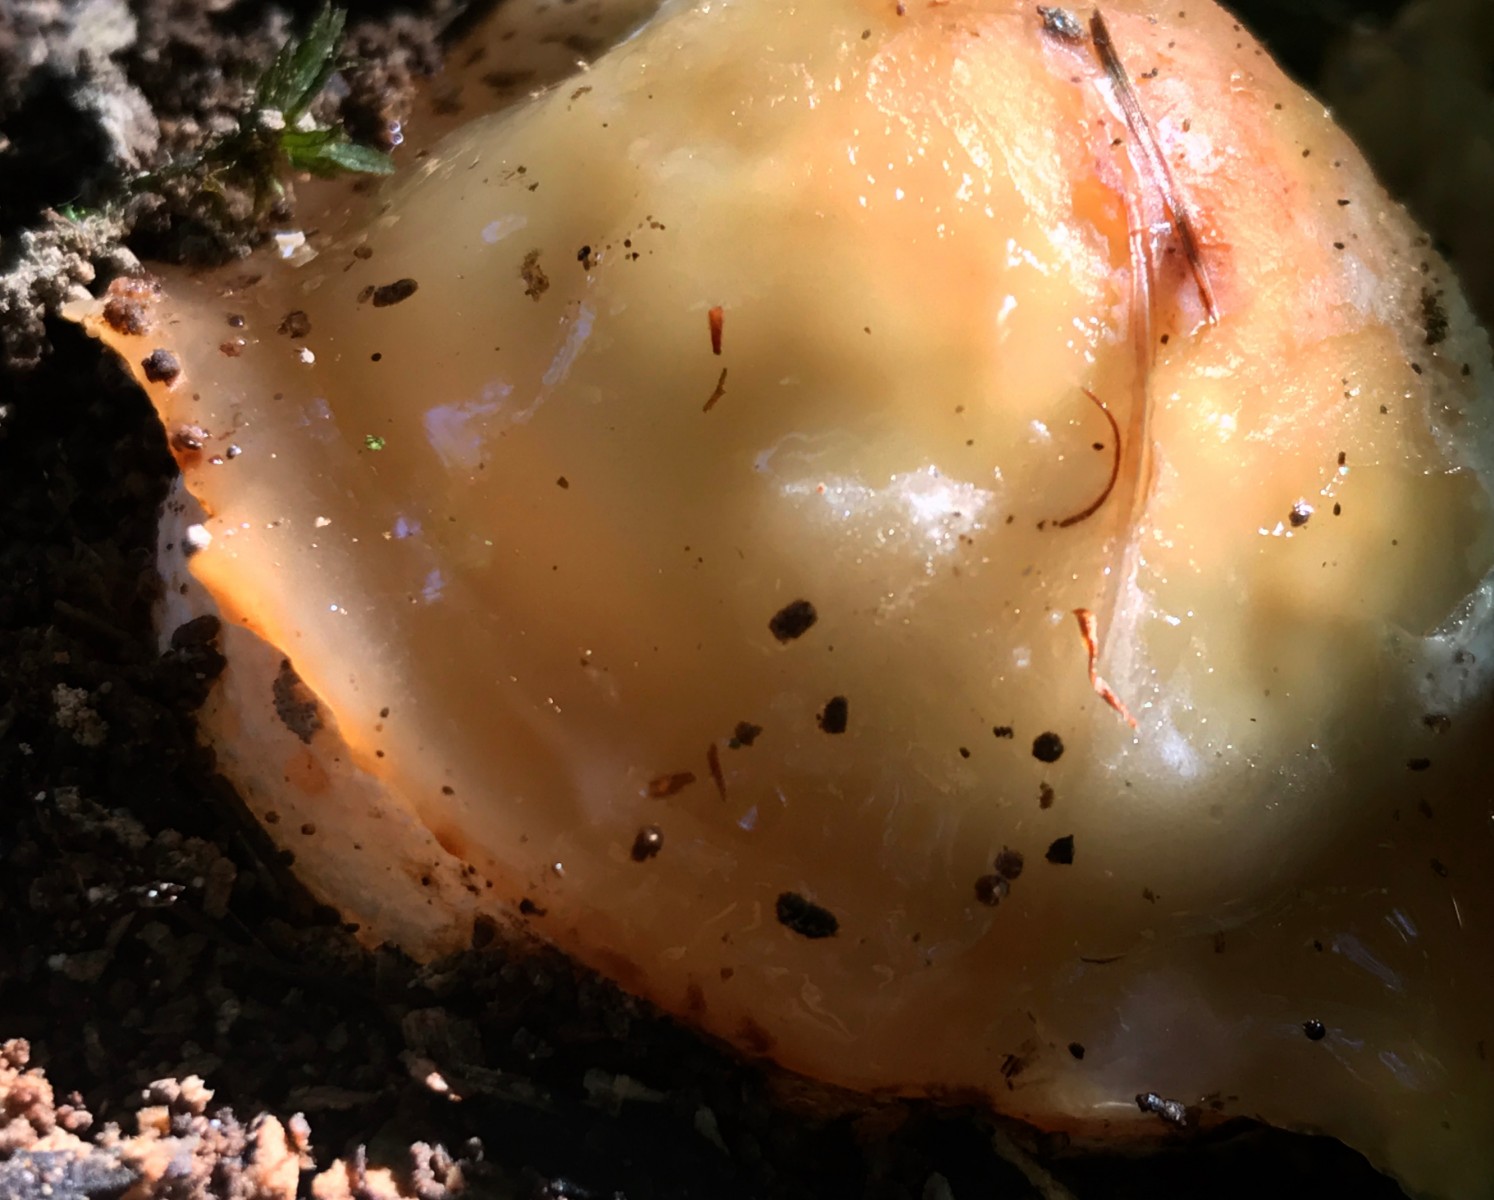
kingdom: Fungi
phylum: Basidiomycota
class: Agaricomycetes
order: Phallales
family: Phallaceae
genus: Phallus
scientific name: Phallus impudicus
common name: almindelig stinksvamp
